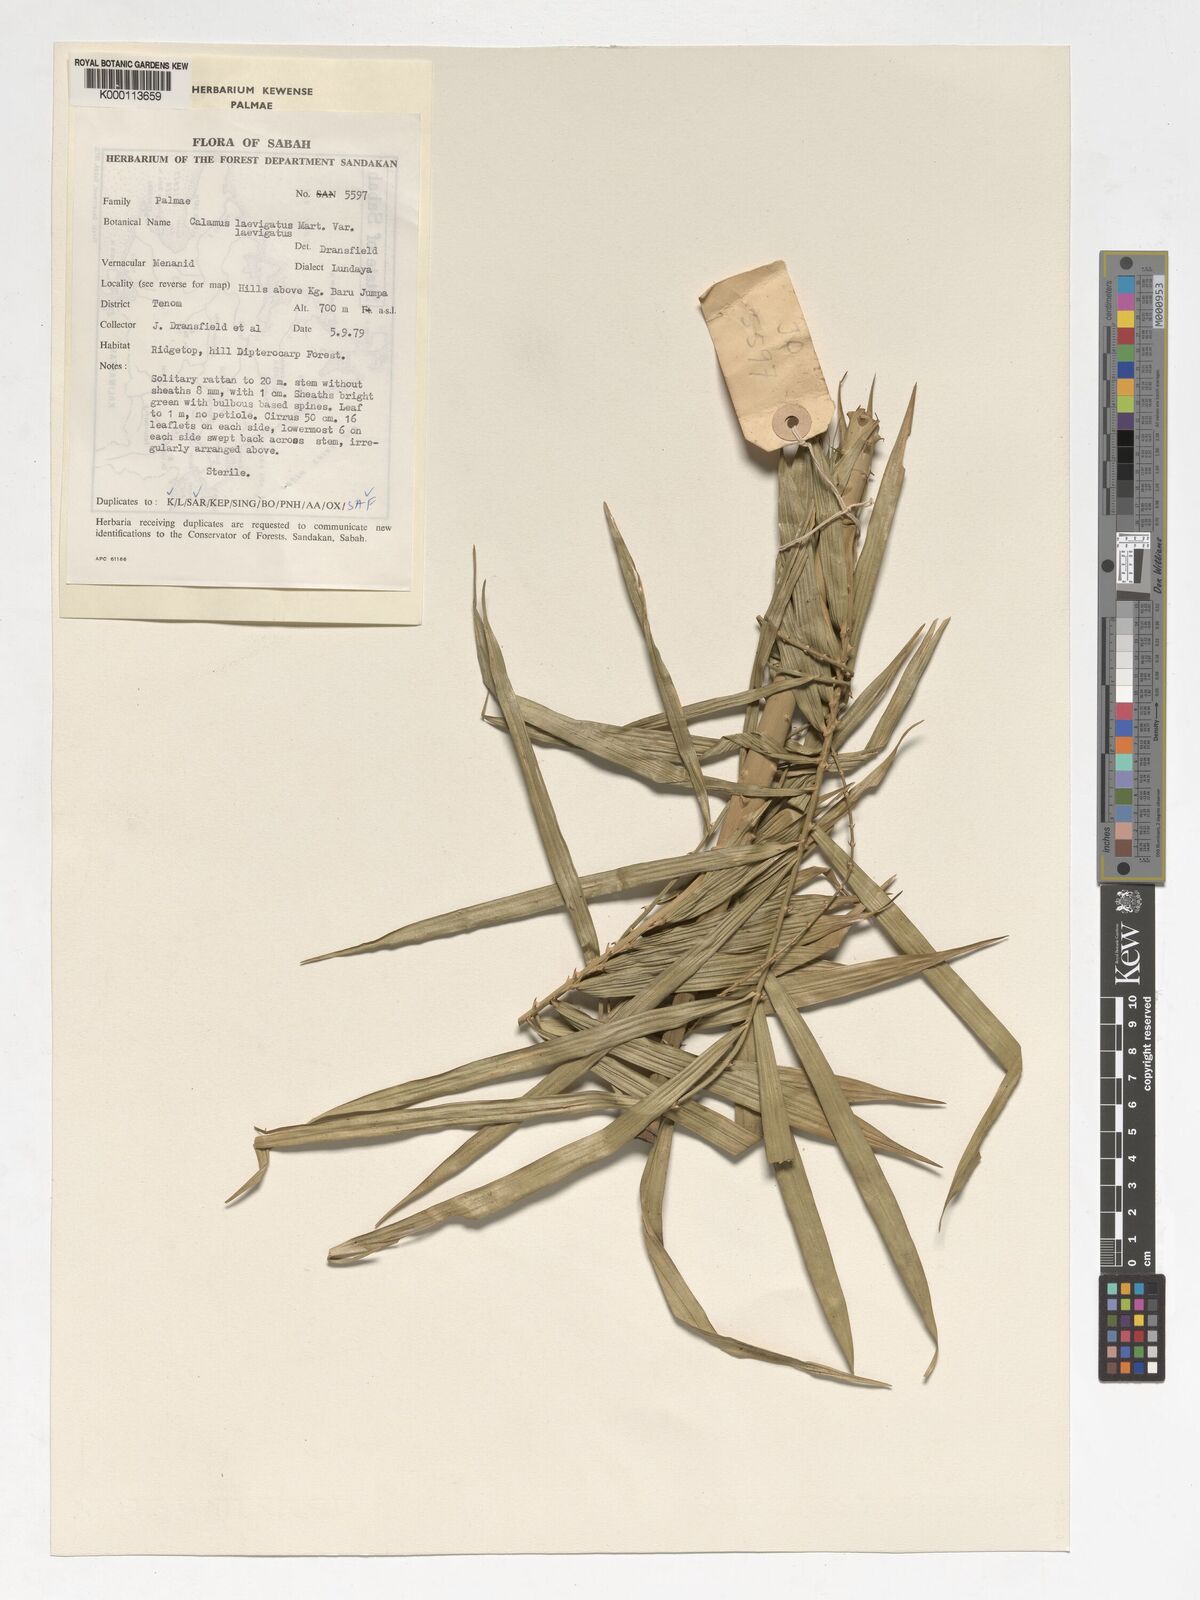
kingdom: Plantae
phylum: Tracheophyta
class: Liliopsida
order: Arecales
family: Arecaceae
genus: Calamus
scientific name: Calamus
